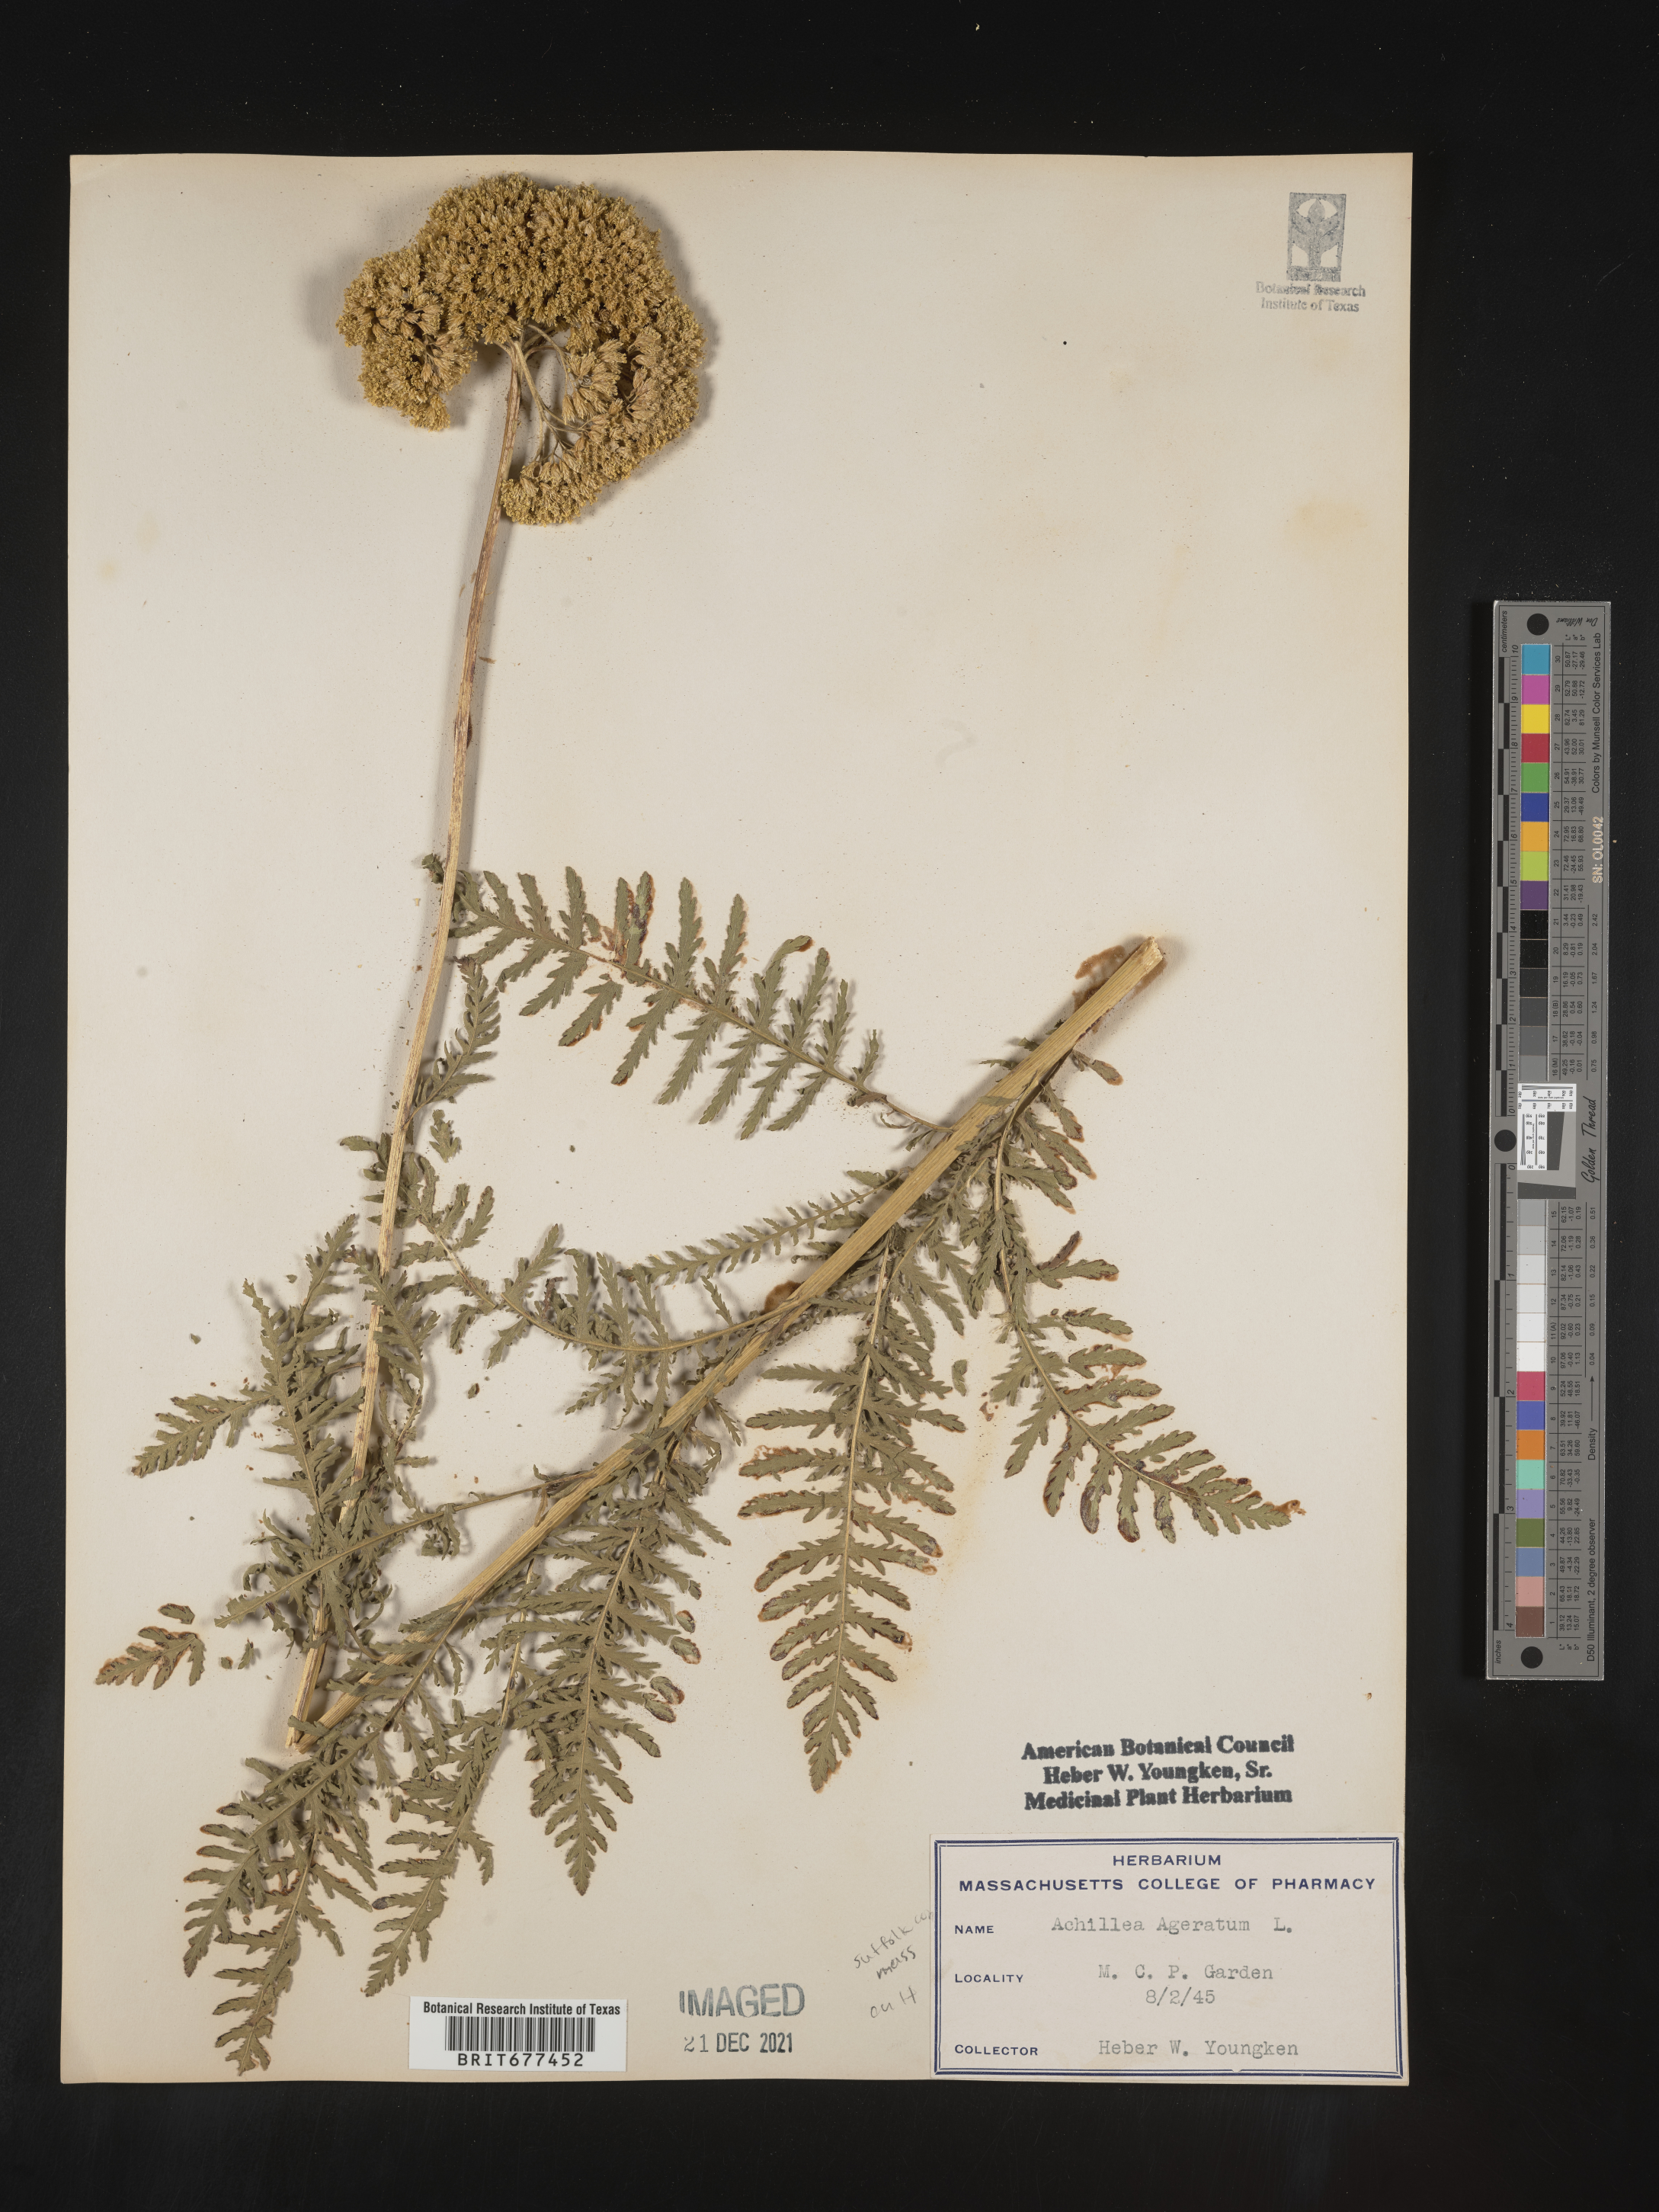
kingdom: Plantae
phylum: Tracheophyta
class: Magnoliopsida
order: Asterales
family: Asteraceae
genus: Achillea
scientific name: Achillea
